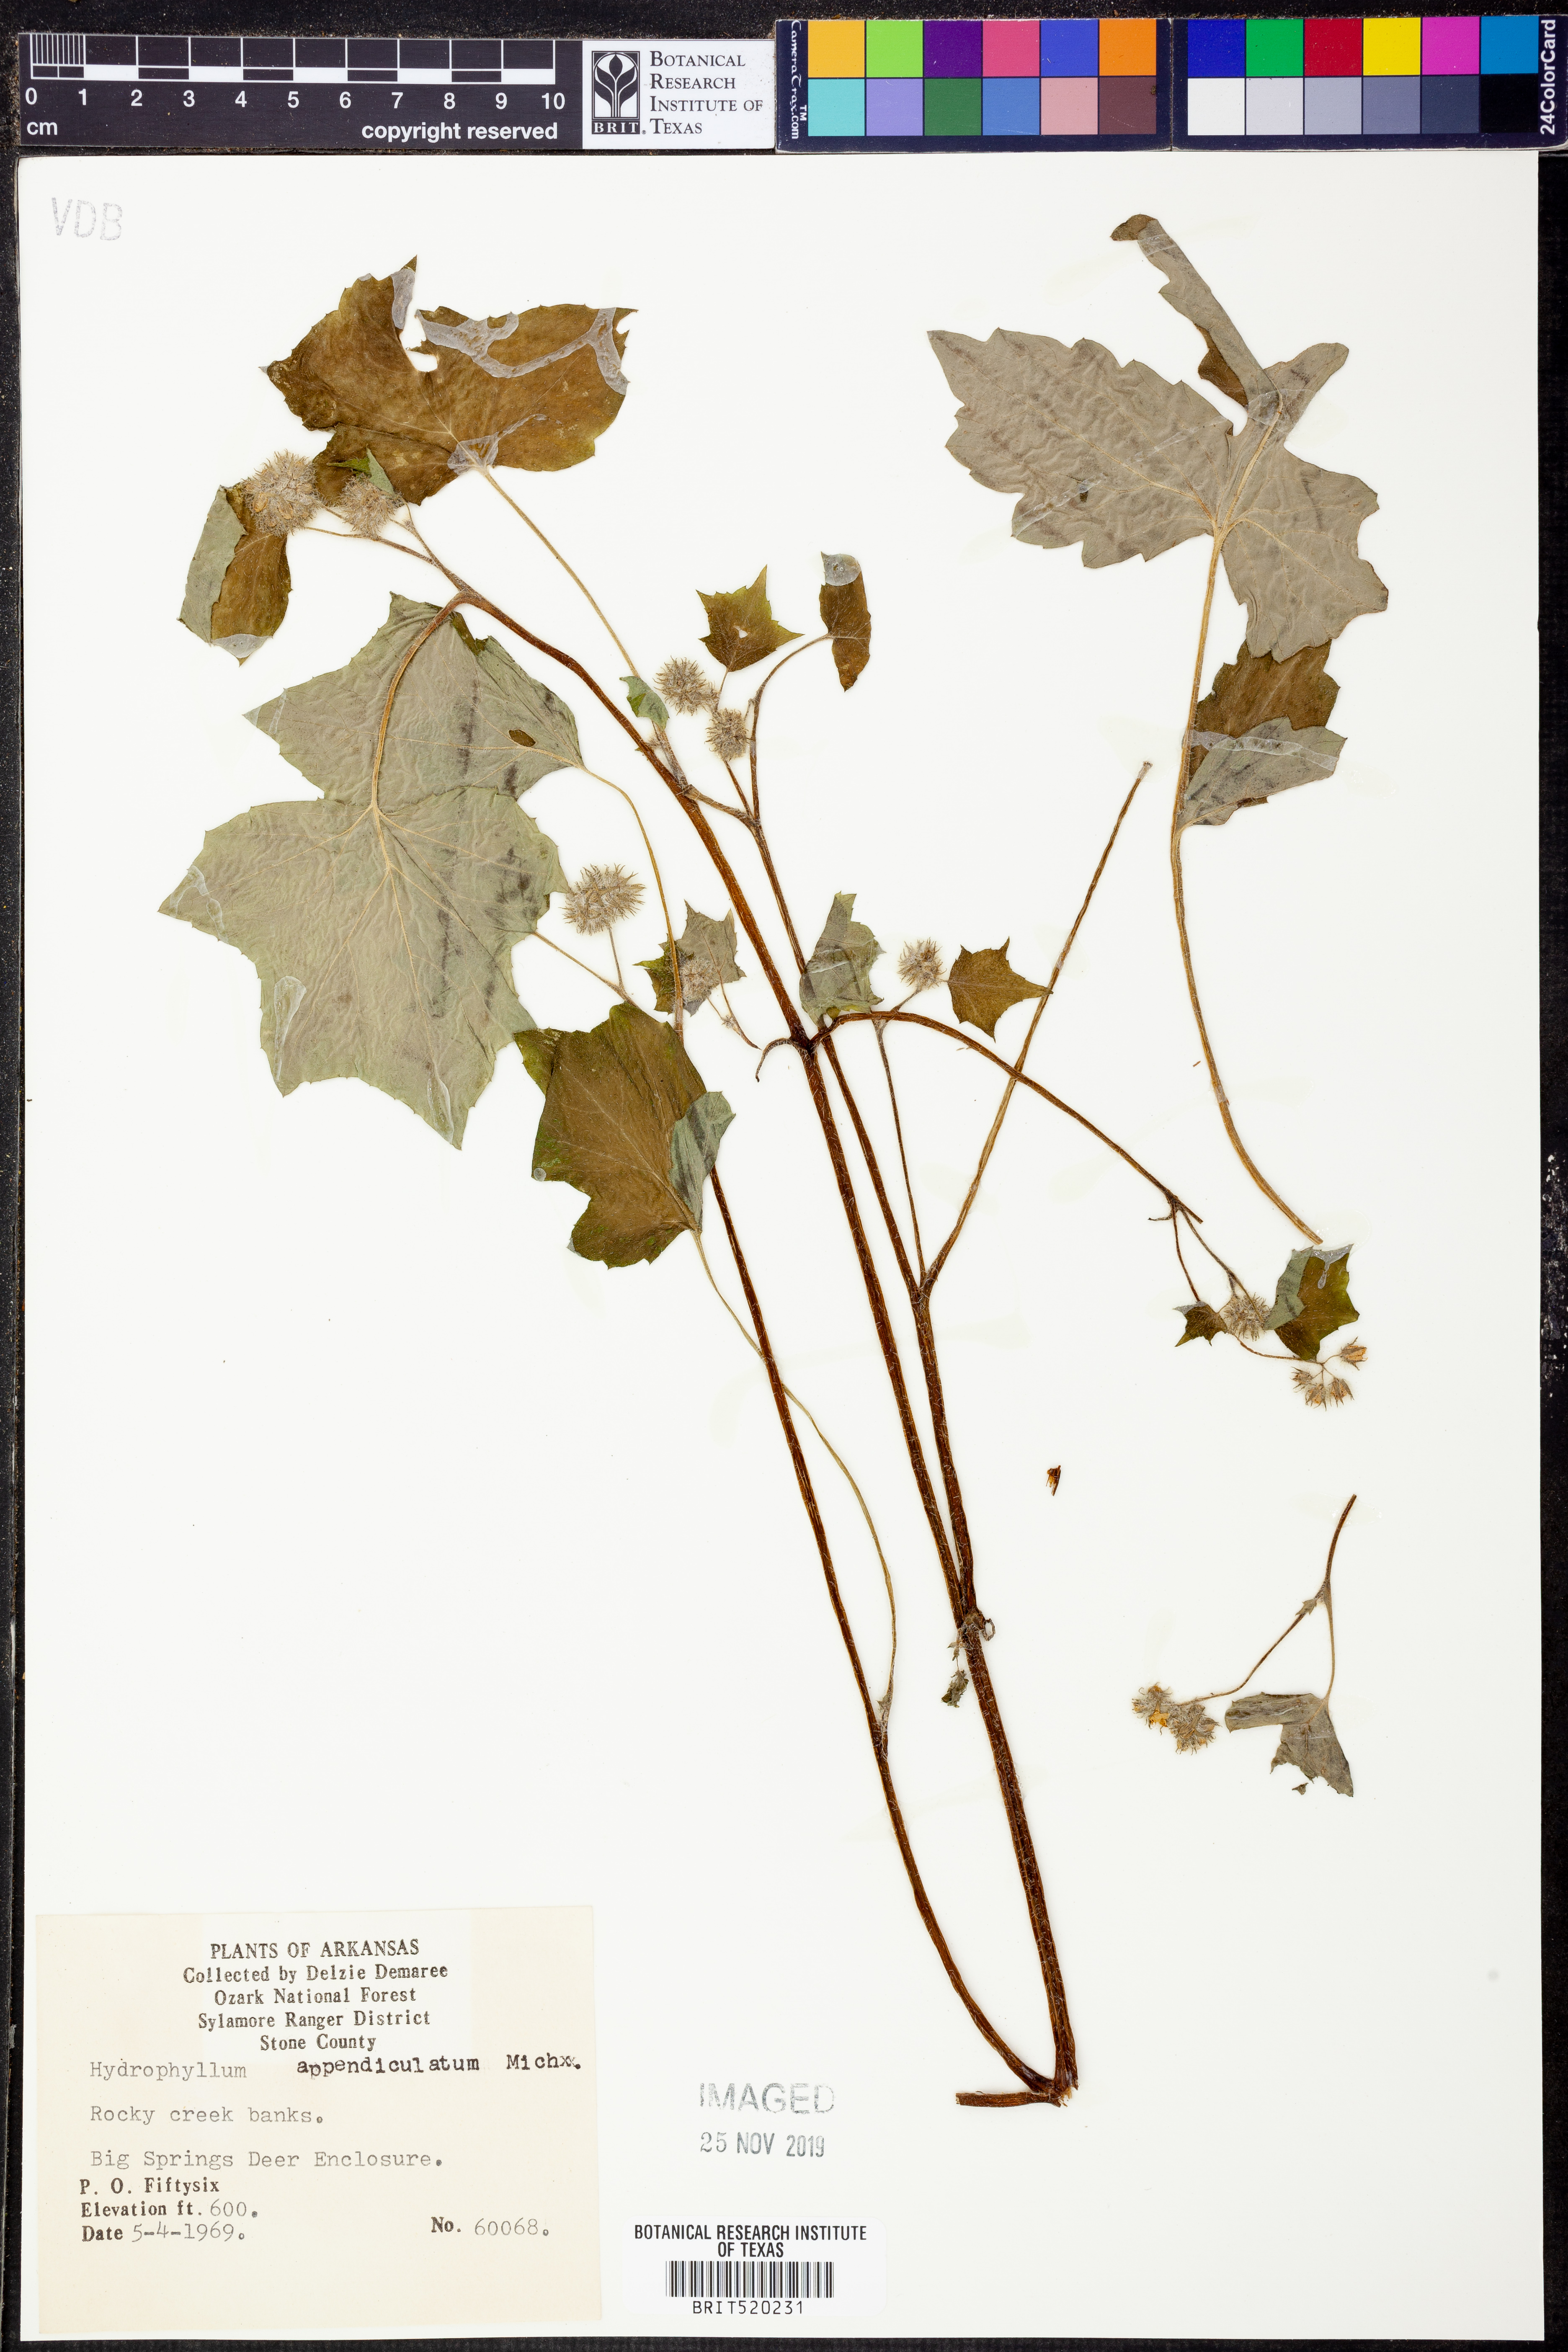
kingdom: Plantae
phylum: Tracheophyta
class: Magnoliopsida
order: Boraginales
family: Hydrophyllaceae
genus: Hydrophyllum
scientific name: Hydrophyllum appendiculatum
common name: Appendaged waterleaf
